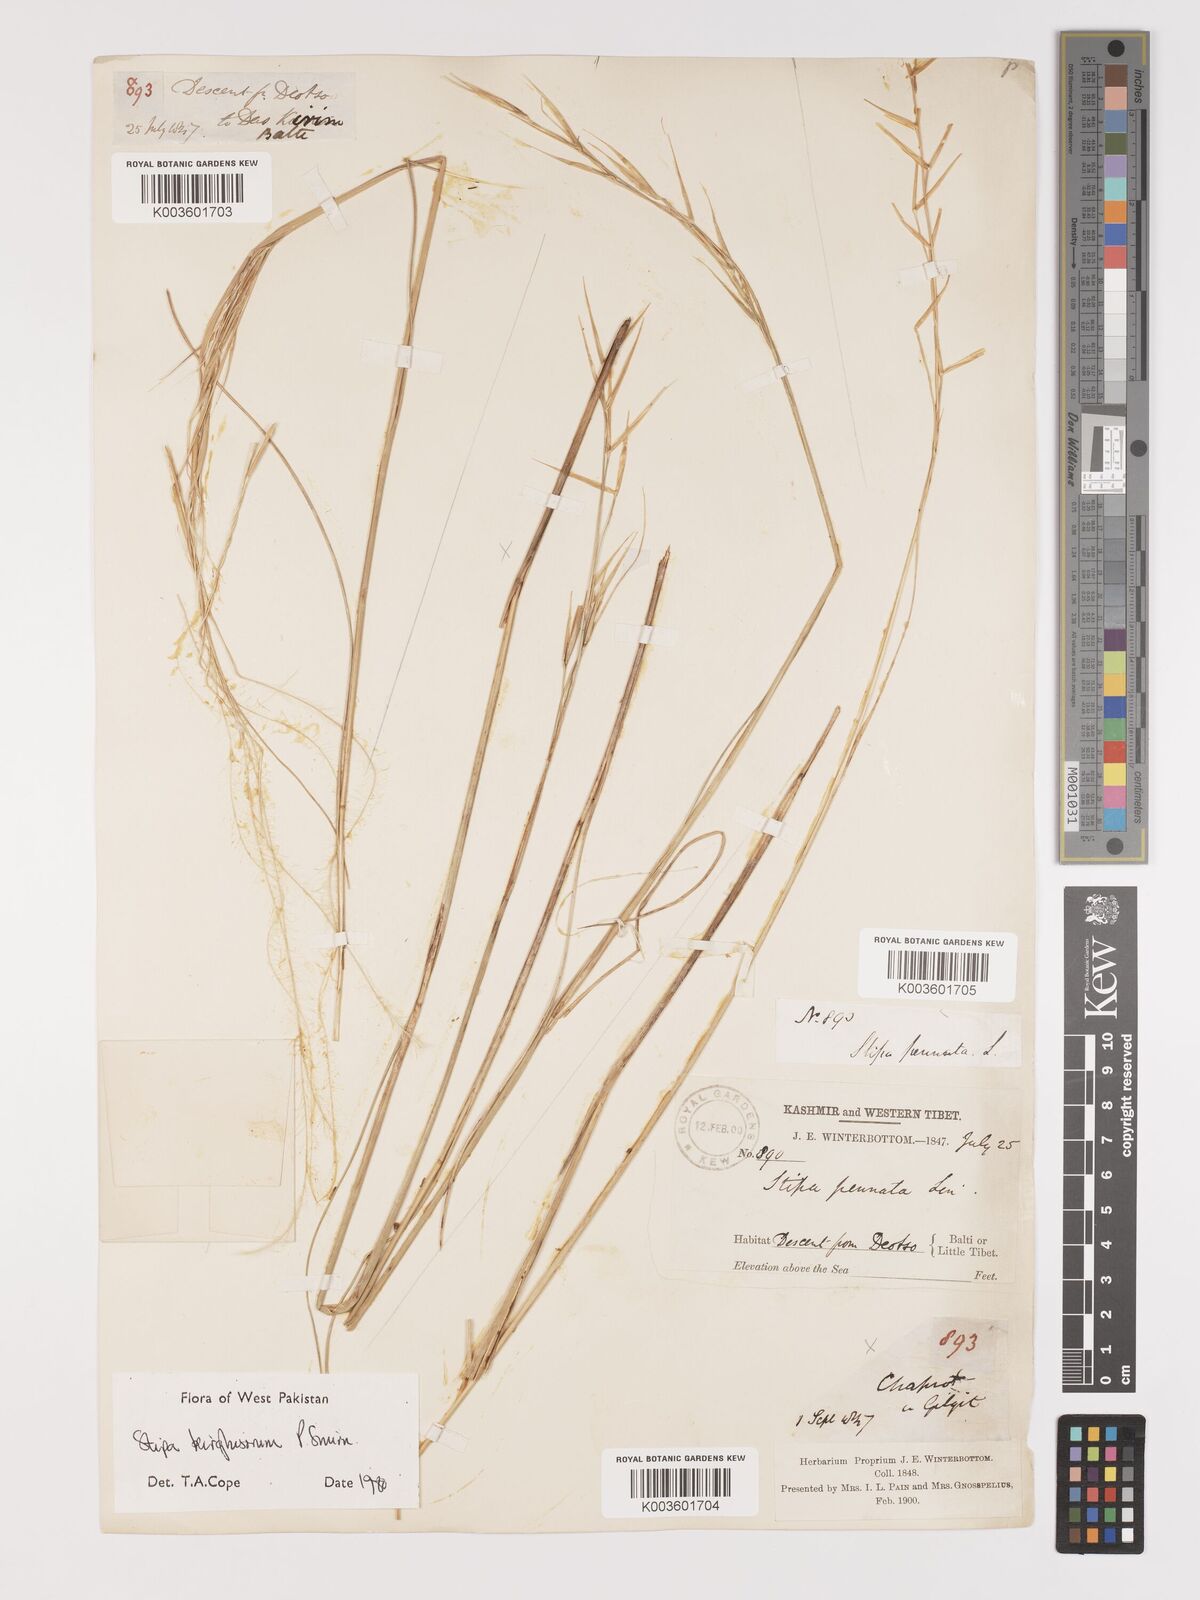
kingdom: Plantae
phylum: Tracheophyta
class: Liliopsida
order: Poales
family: Poaceae
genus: Stipa
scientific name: Stipa kirghisorum
